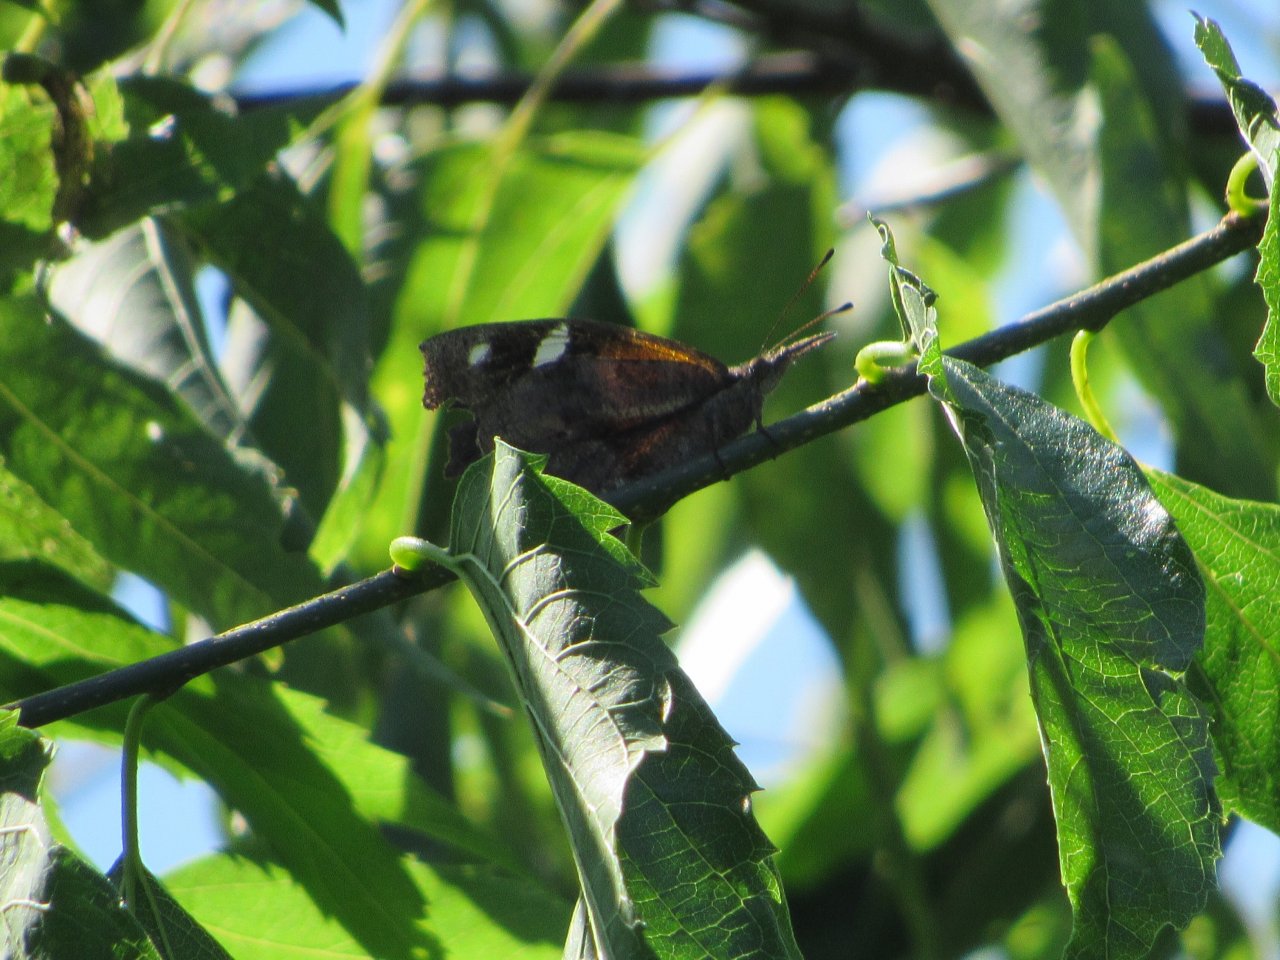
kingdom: Animalia
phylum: Arthropoda
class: Insecta
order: Lepidoptera
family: Nymphalidae
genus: Libytheana
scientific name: Libytheana carinenta
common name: American Snout
